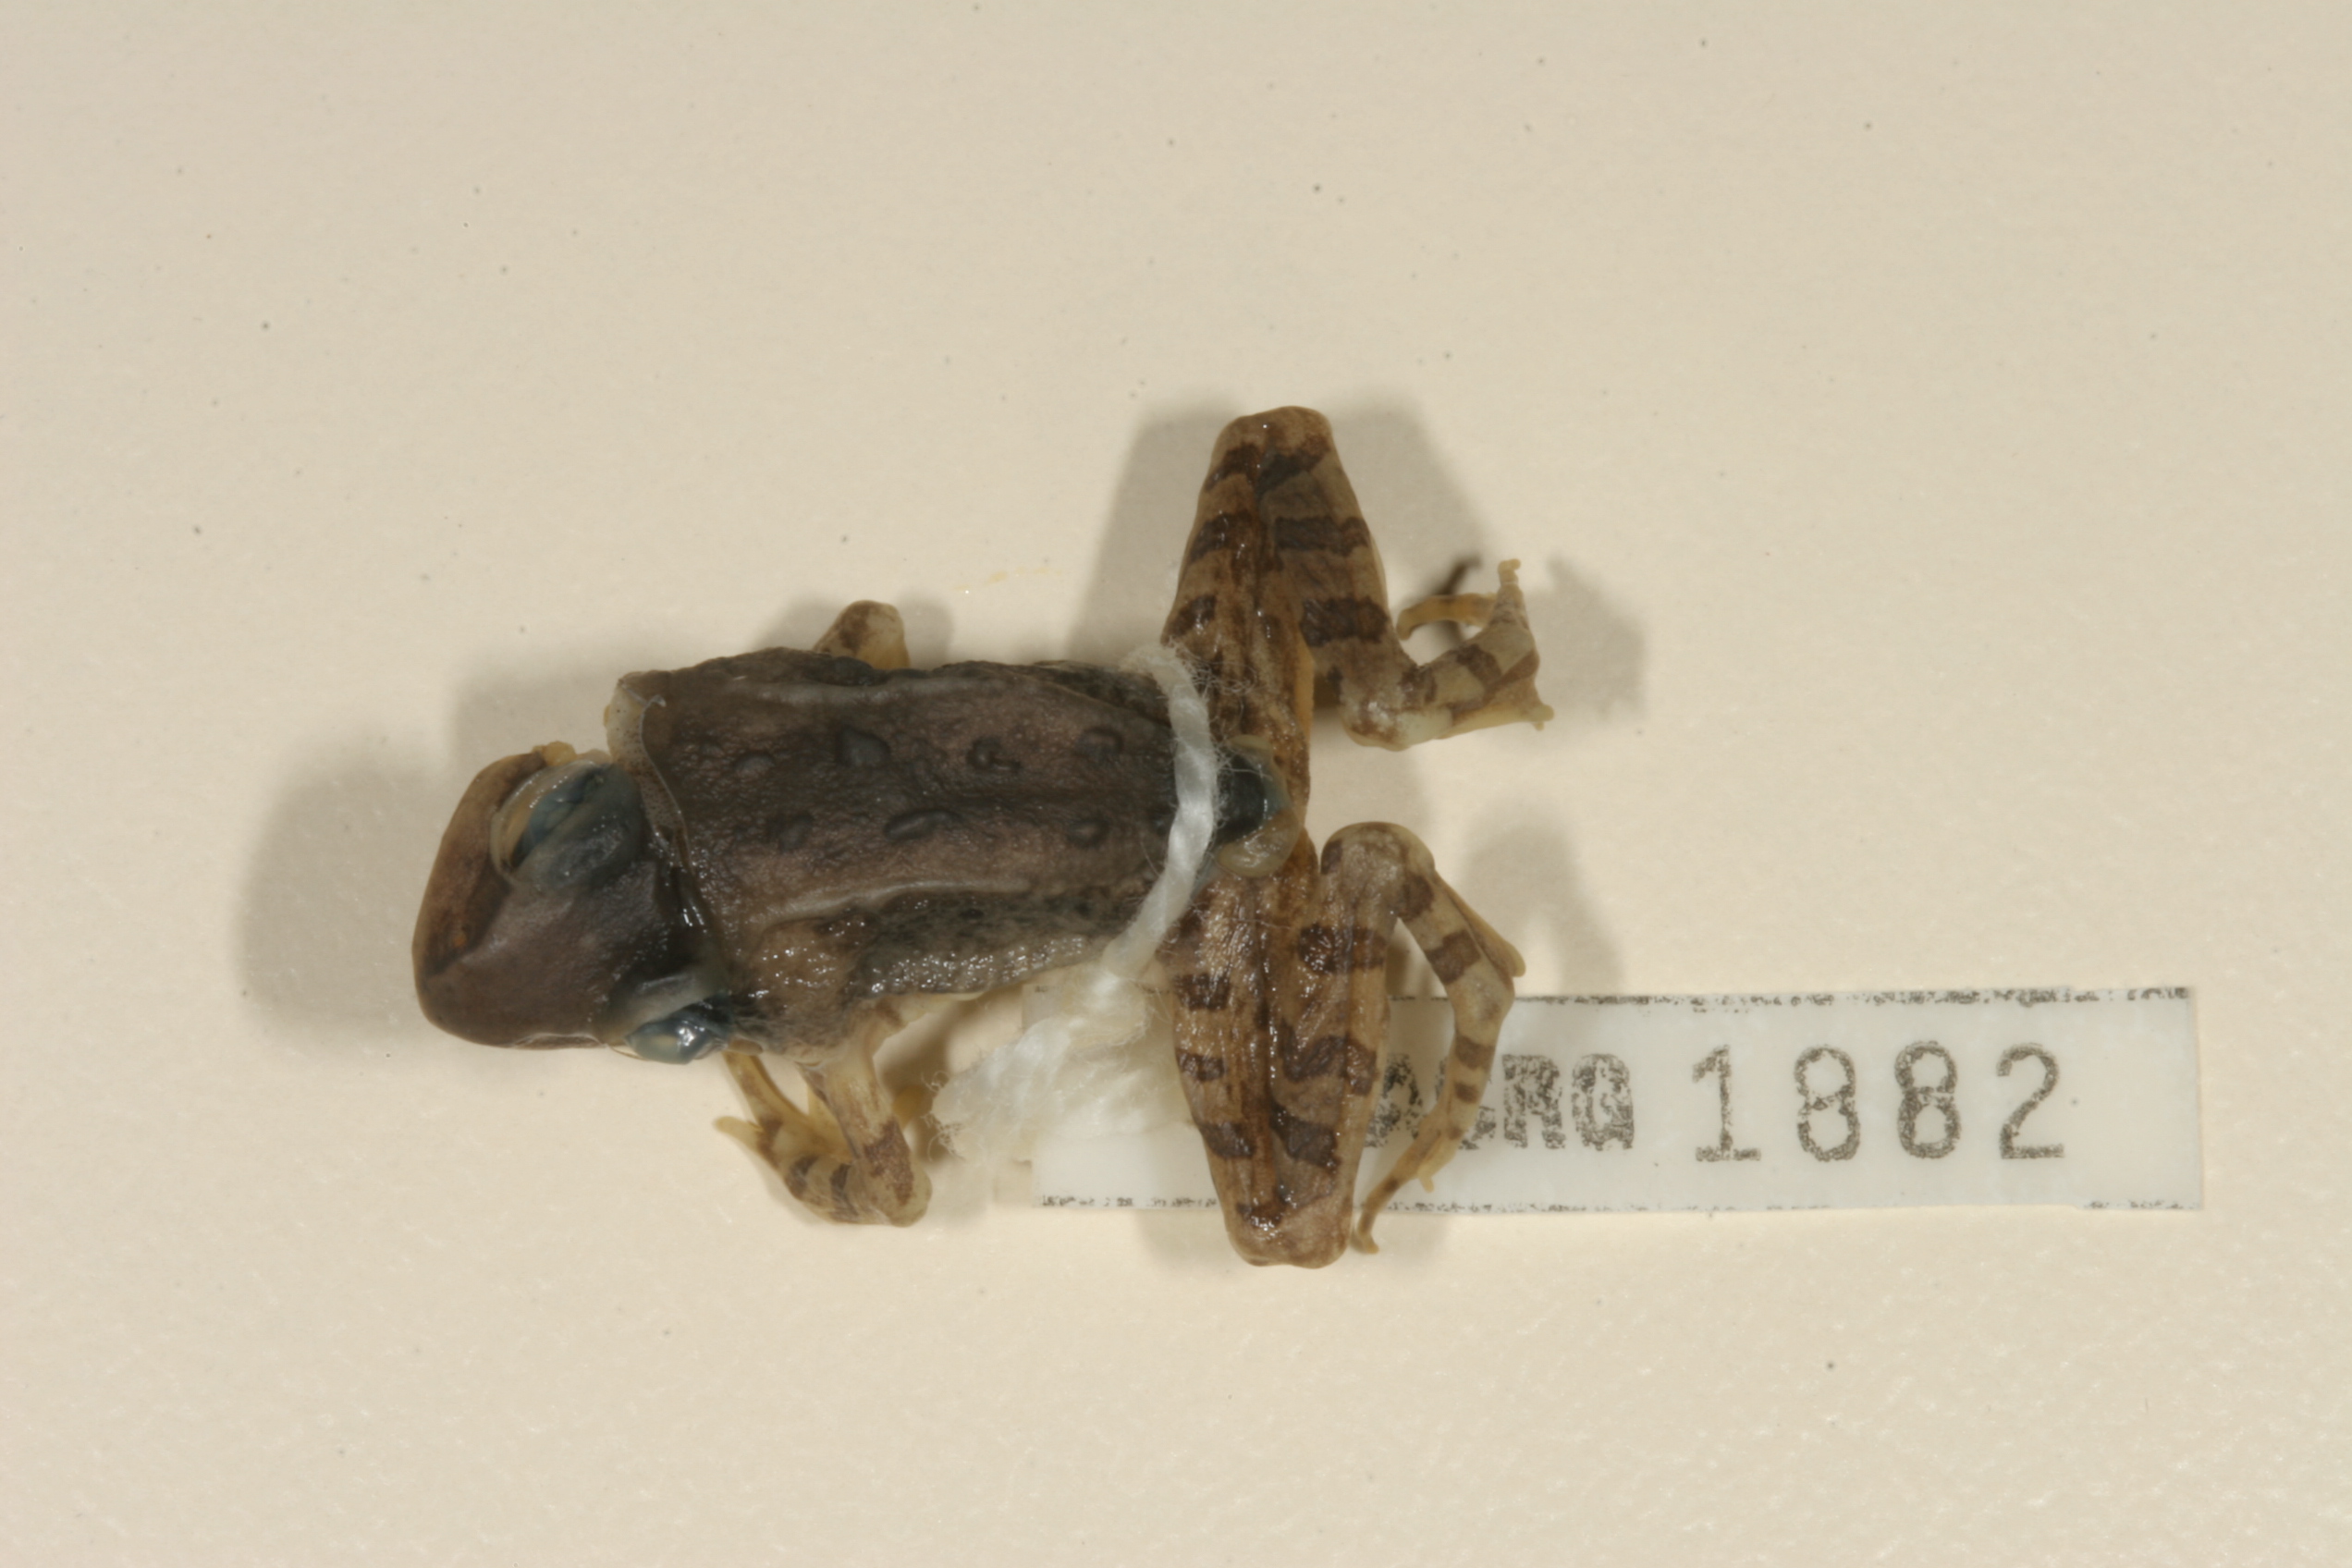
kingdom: Animalia
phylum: Chordata
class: Amphibia
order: Anura
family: Ptychadenidae
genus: Hildebrandtia
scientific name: Hildebrandtia ornata
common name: Ornate frog
